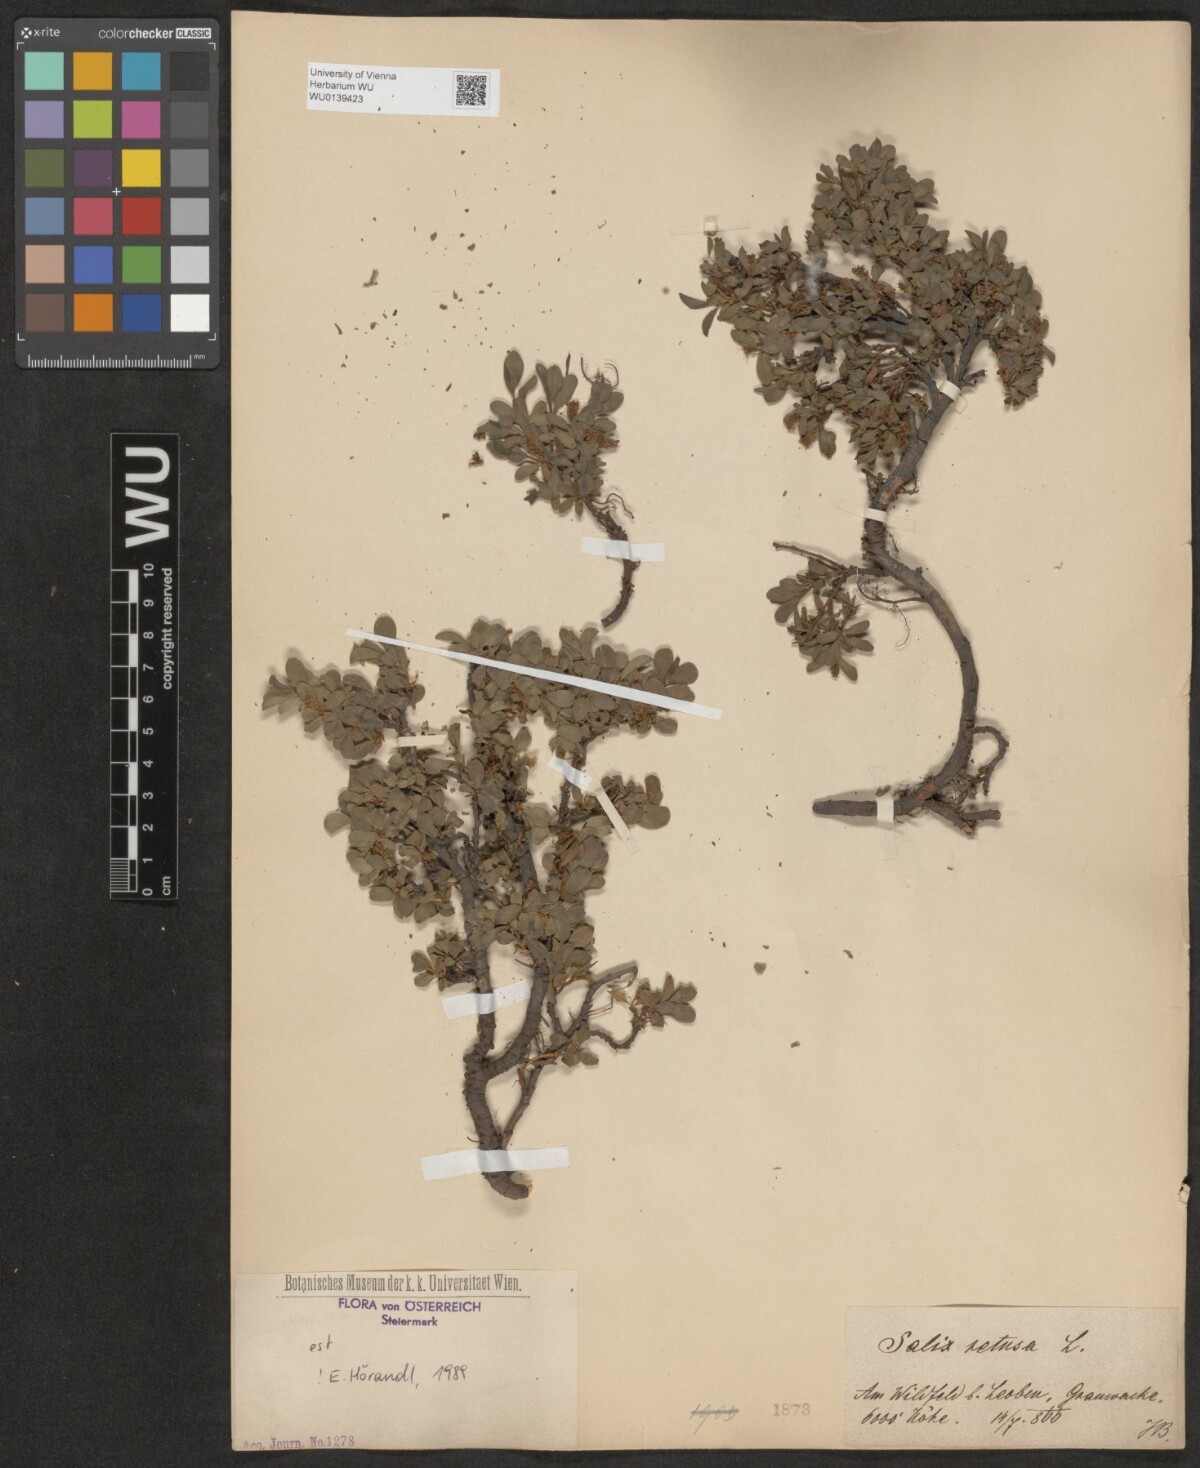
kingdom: Plantae
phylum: Tracheophyta
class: Magnoliopsida
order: Malpighiales
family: Salicaceae
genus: Salix
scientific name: Salix retusa
